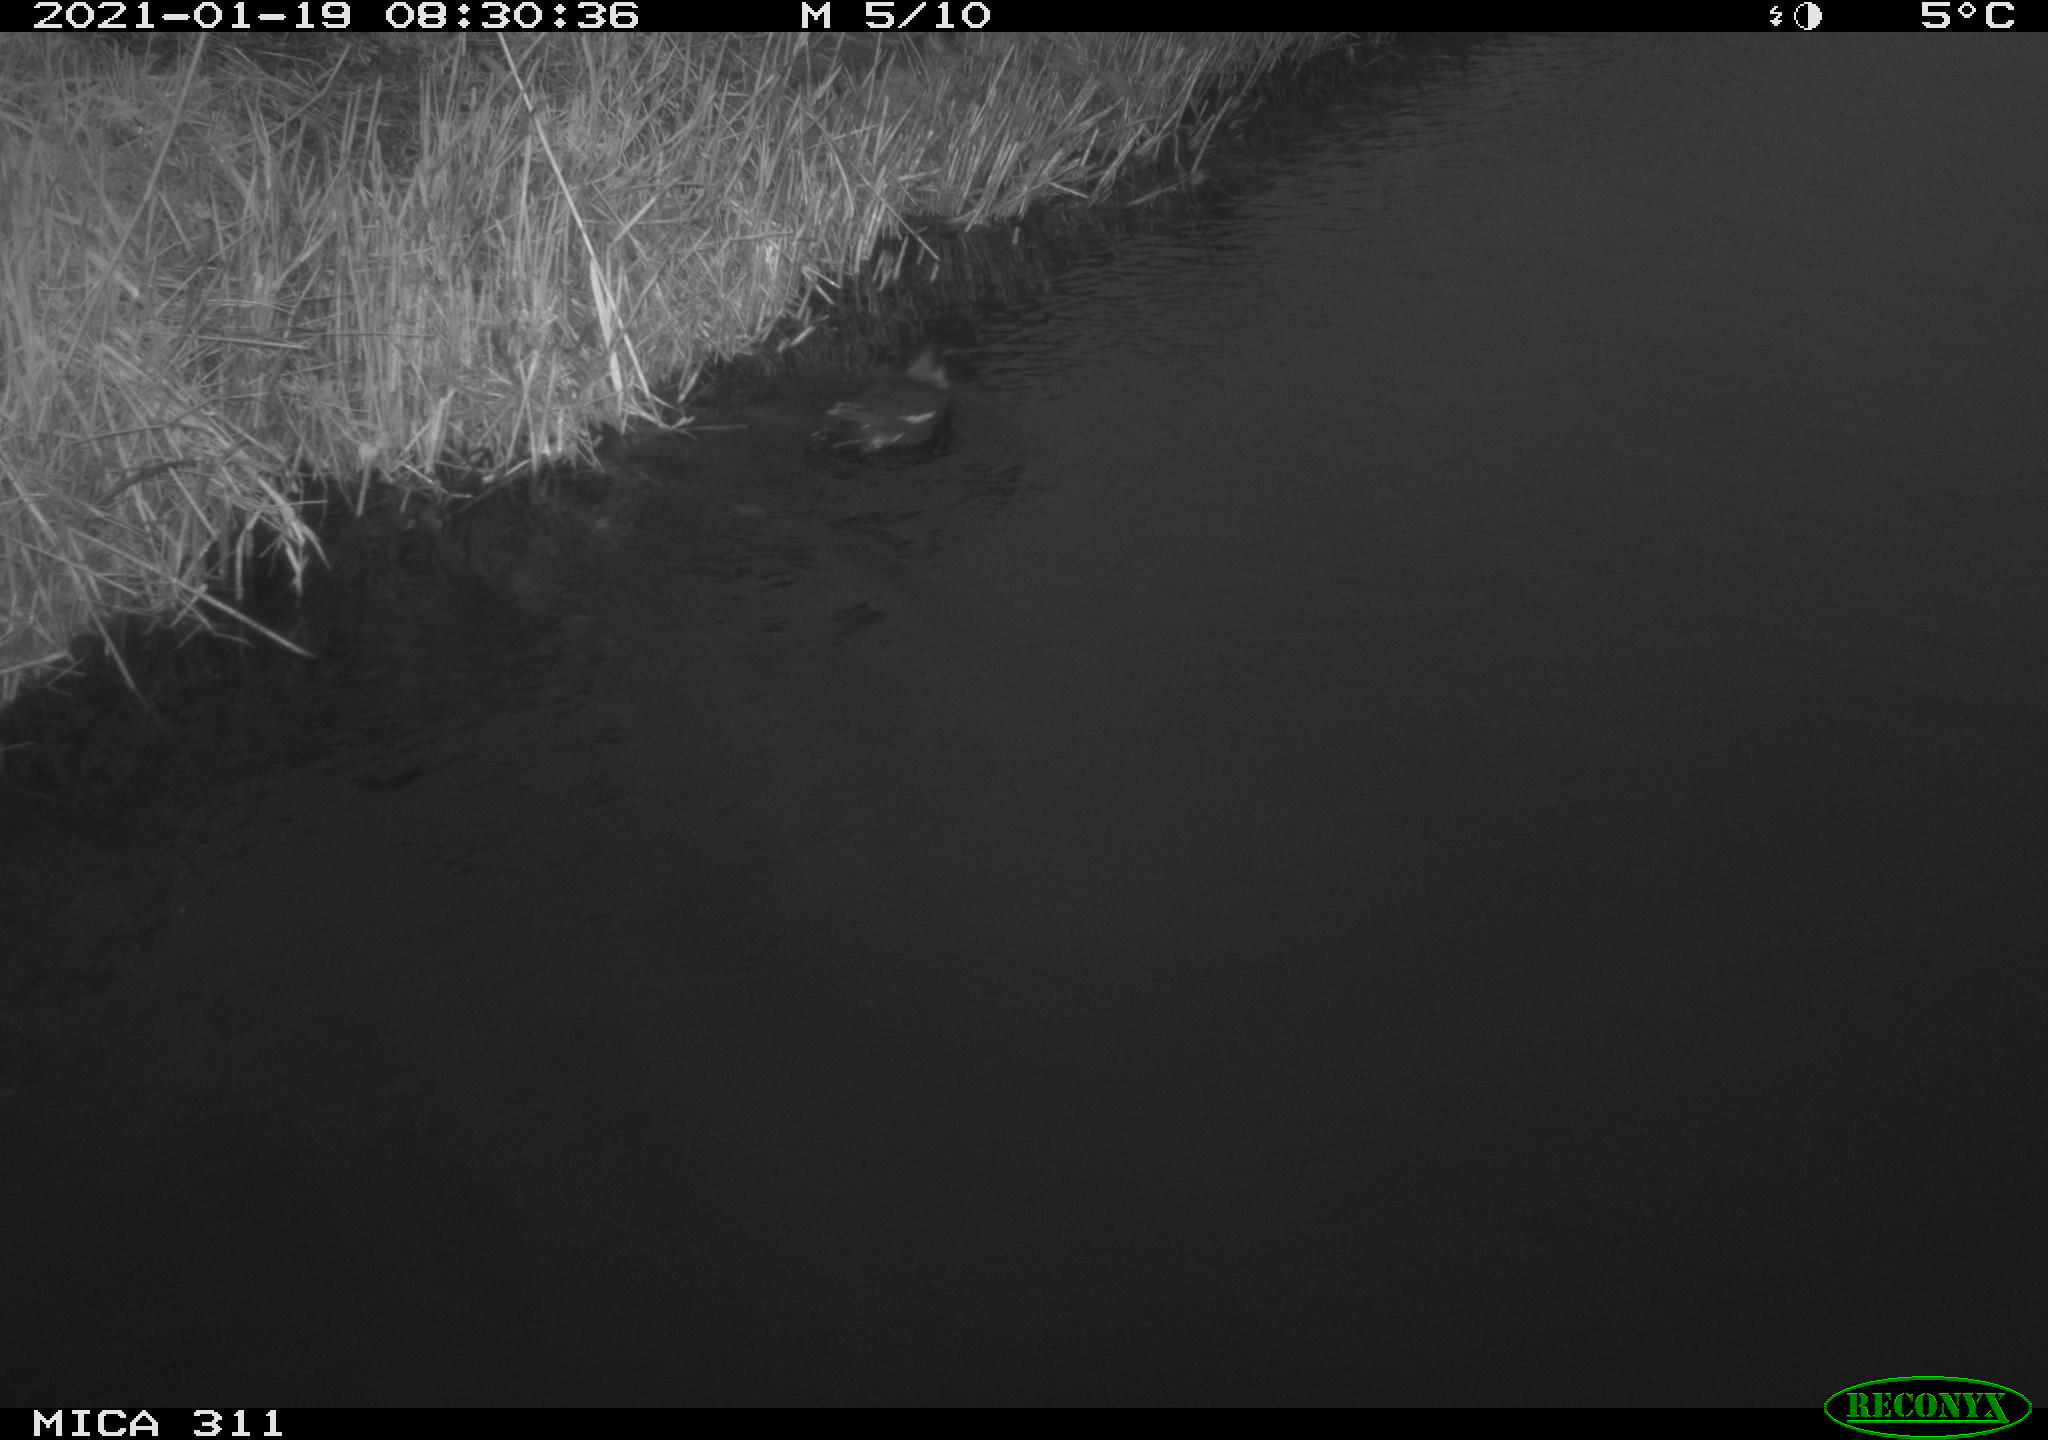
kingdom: Animalia
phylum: Chordata
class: Aves
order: Gruiformes
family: Rallidae
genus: Gallinula
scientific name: Gallinula chloropus
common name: Common moorhen
